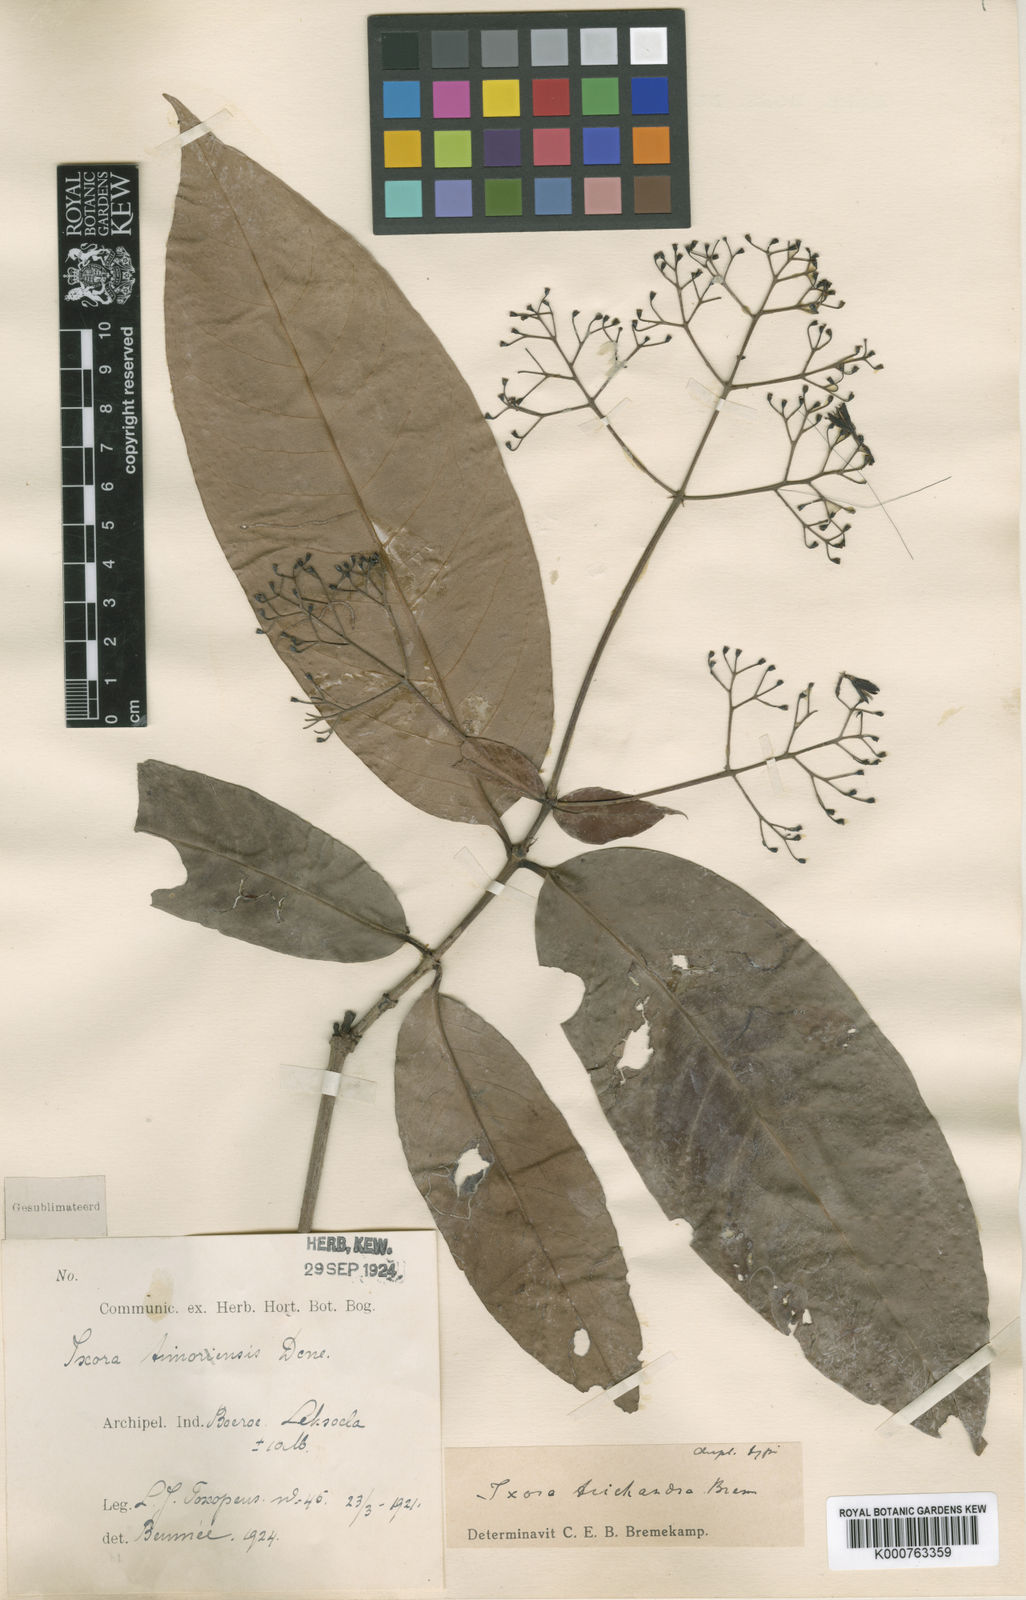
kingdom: Plantae
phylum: Tracheophyta
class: Magnoliopsida
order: Gentianales
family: Rubiaceae
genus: Ixora
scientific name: Ixora trichandra
